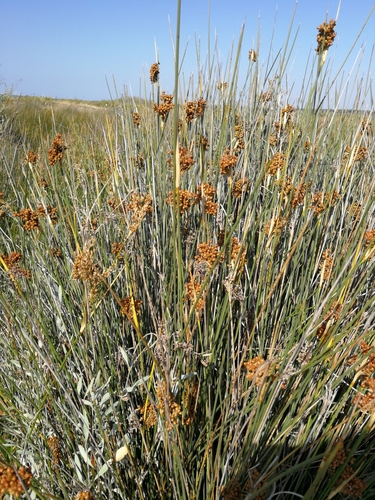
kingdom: Plantae
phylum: Tracheophyta
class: Liliopsida
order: Poales
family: Juncaceae
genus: Juncus
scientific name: Juncus acutus
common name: Sharp rush
